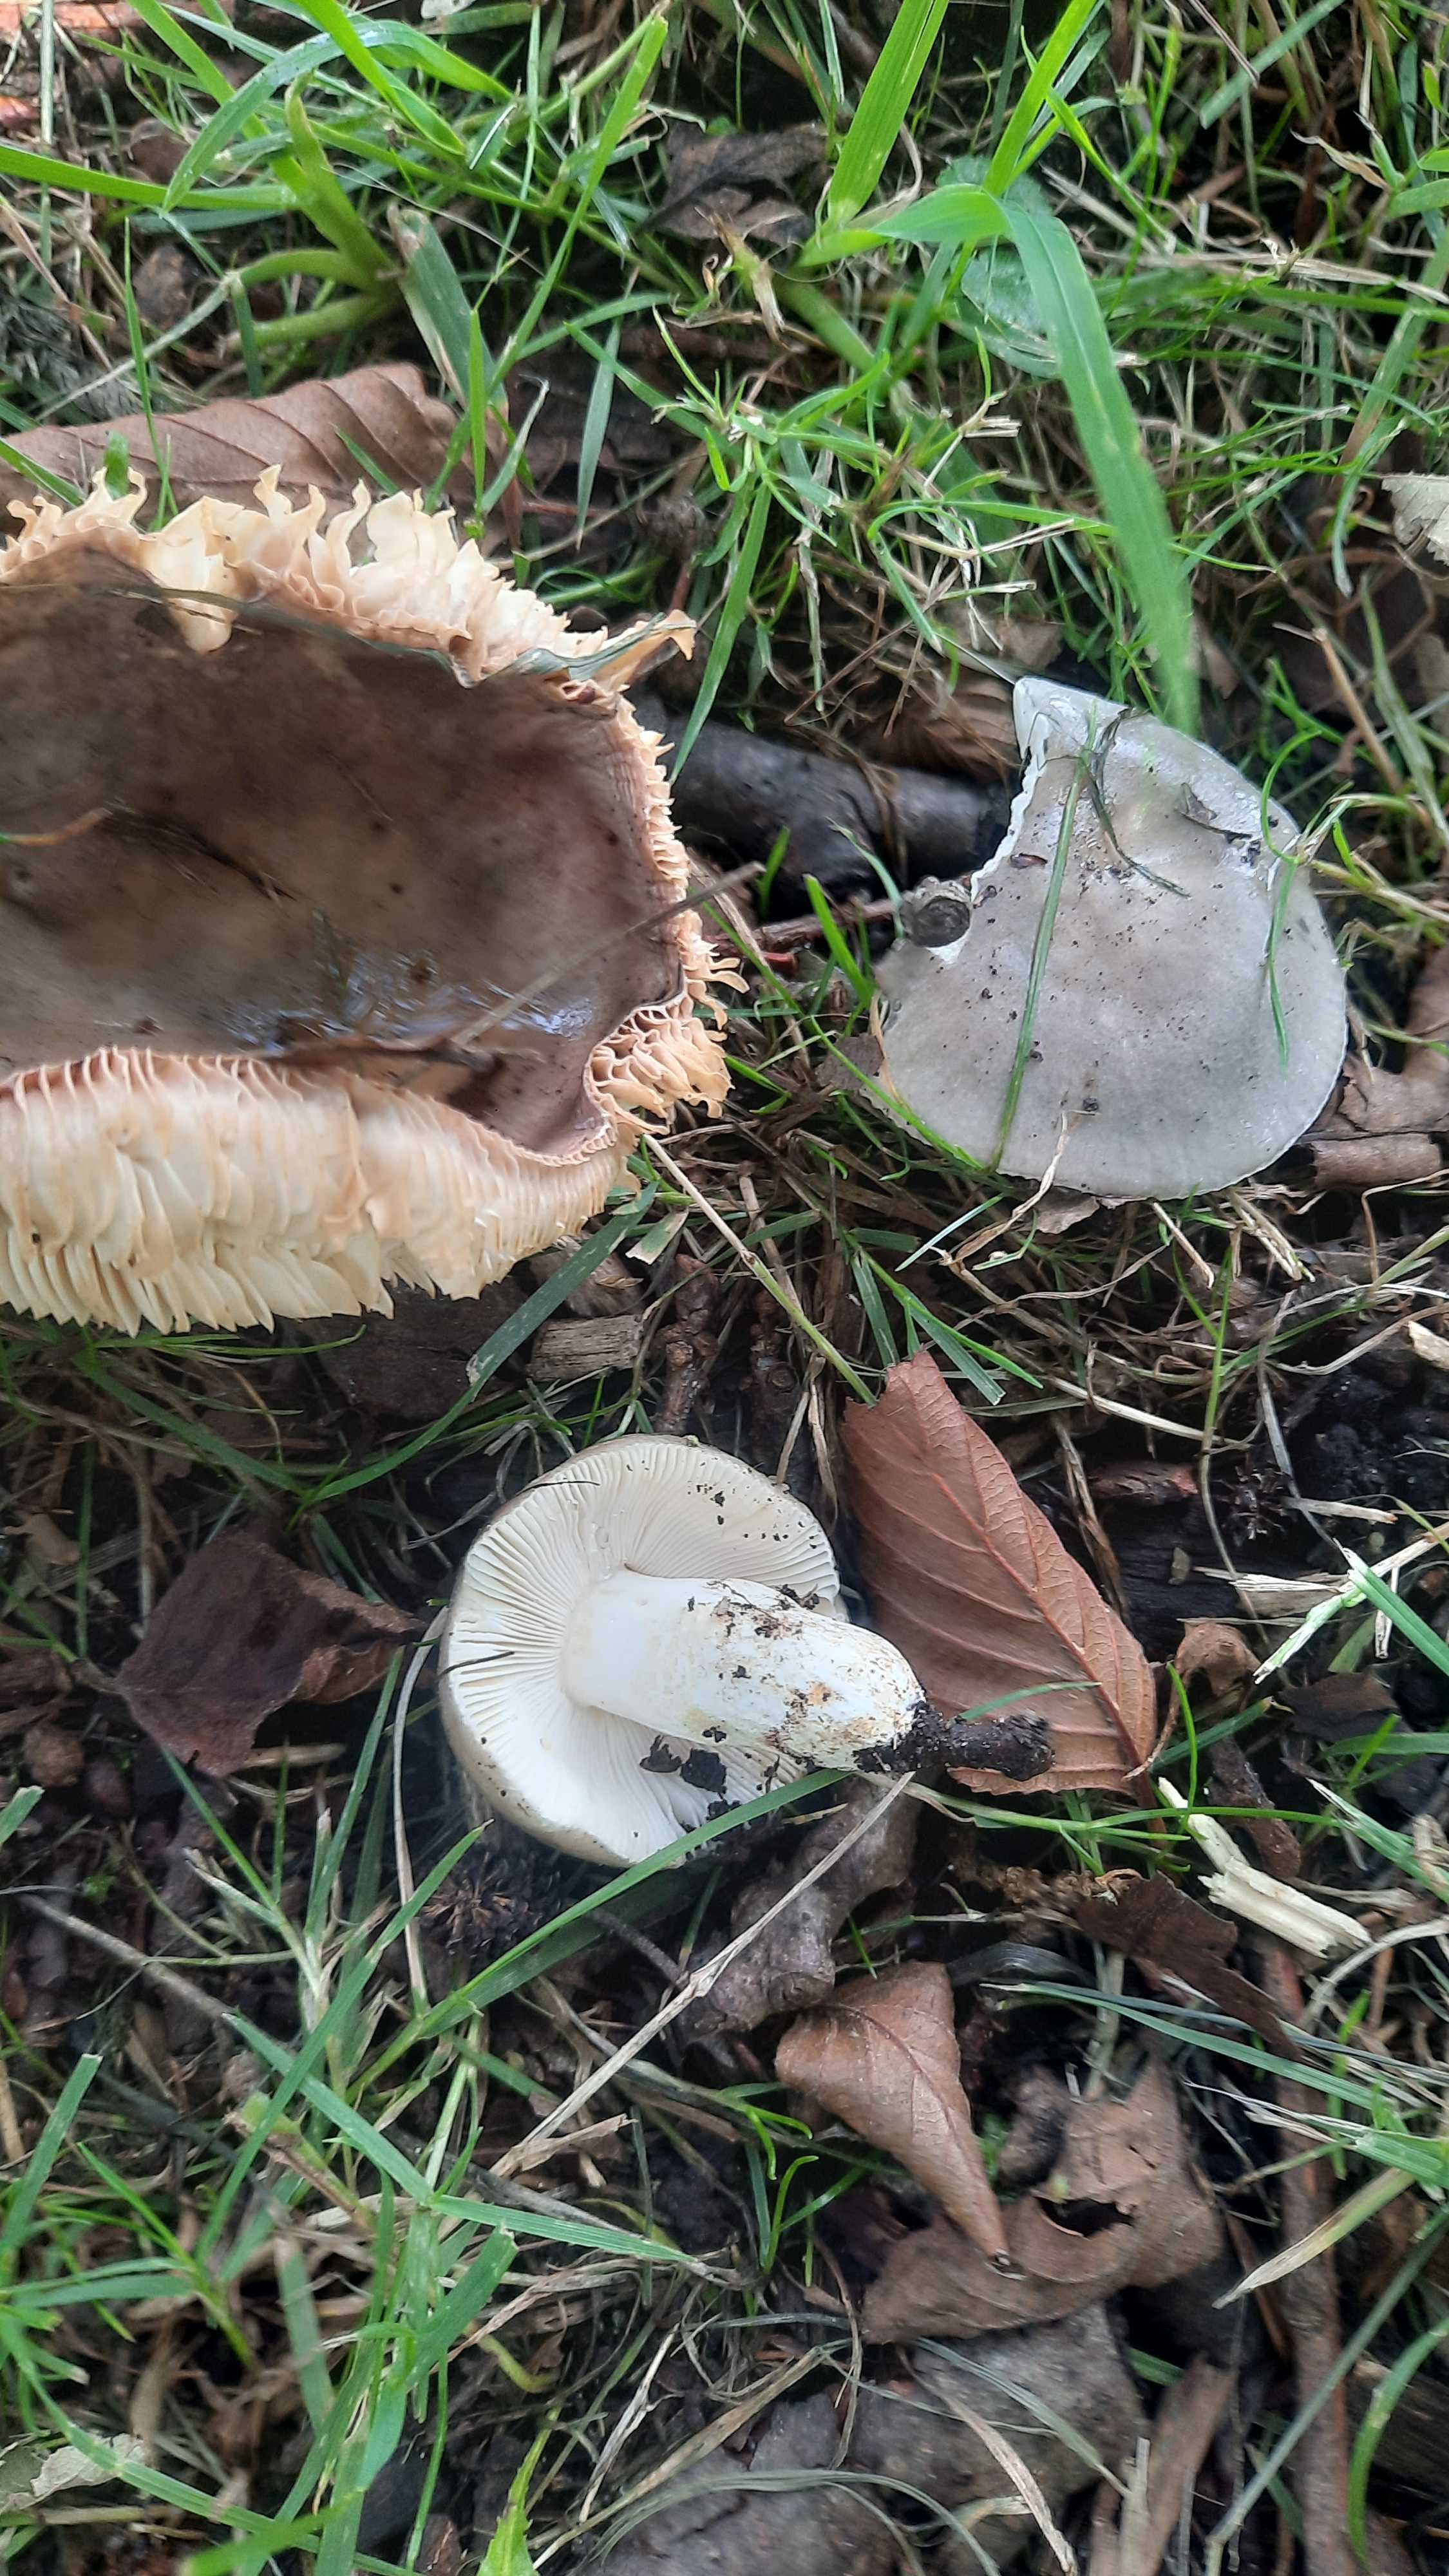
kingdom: Fungi
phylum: Basidiomycota
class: Agaricomycetes
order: Russulales
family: Russulaceae
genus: Russula
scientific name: Russula
